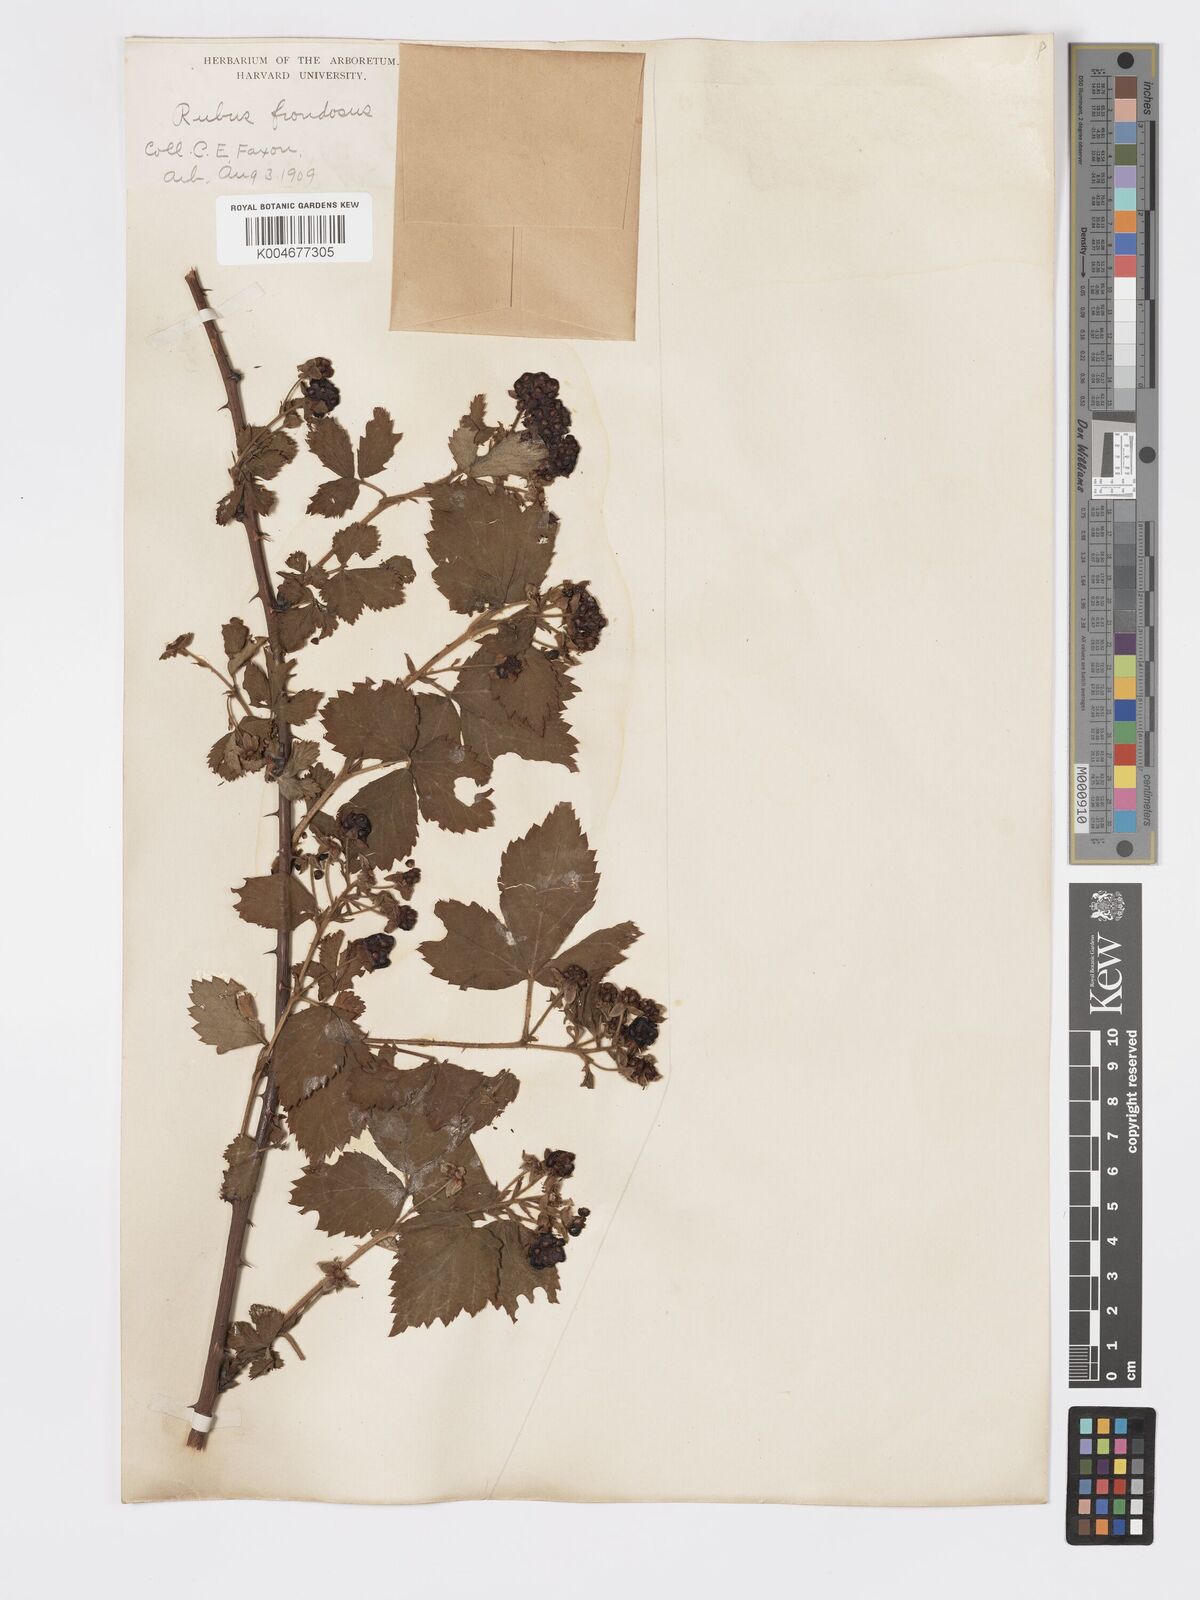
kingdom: Plantae
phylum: Tracheophyta
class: Magnoliopsida
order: Rosales
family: Rosaceae
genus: Rubus
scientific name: Rubus frondosus
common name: Yankee blackberry
